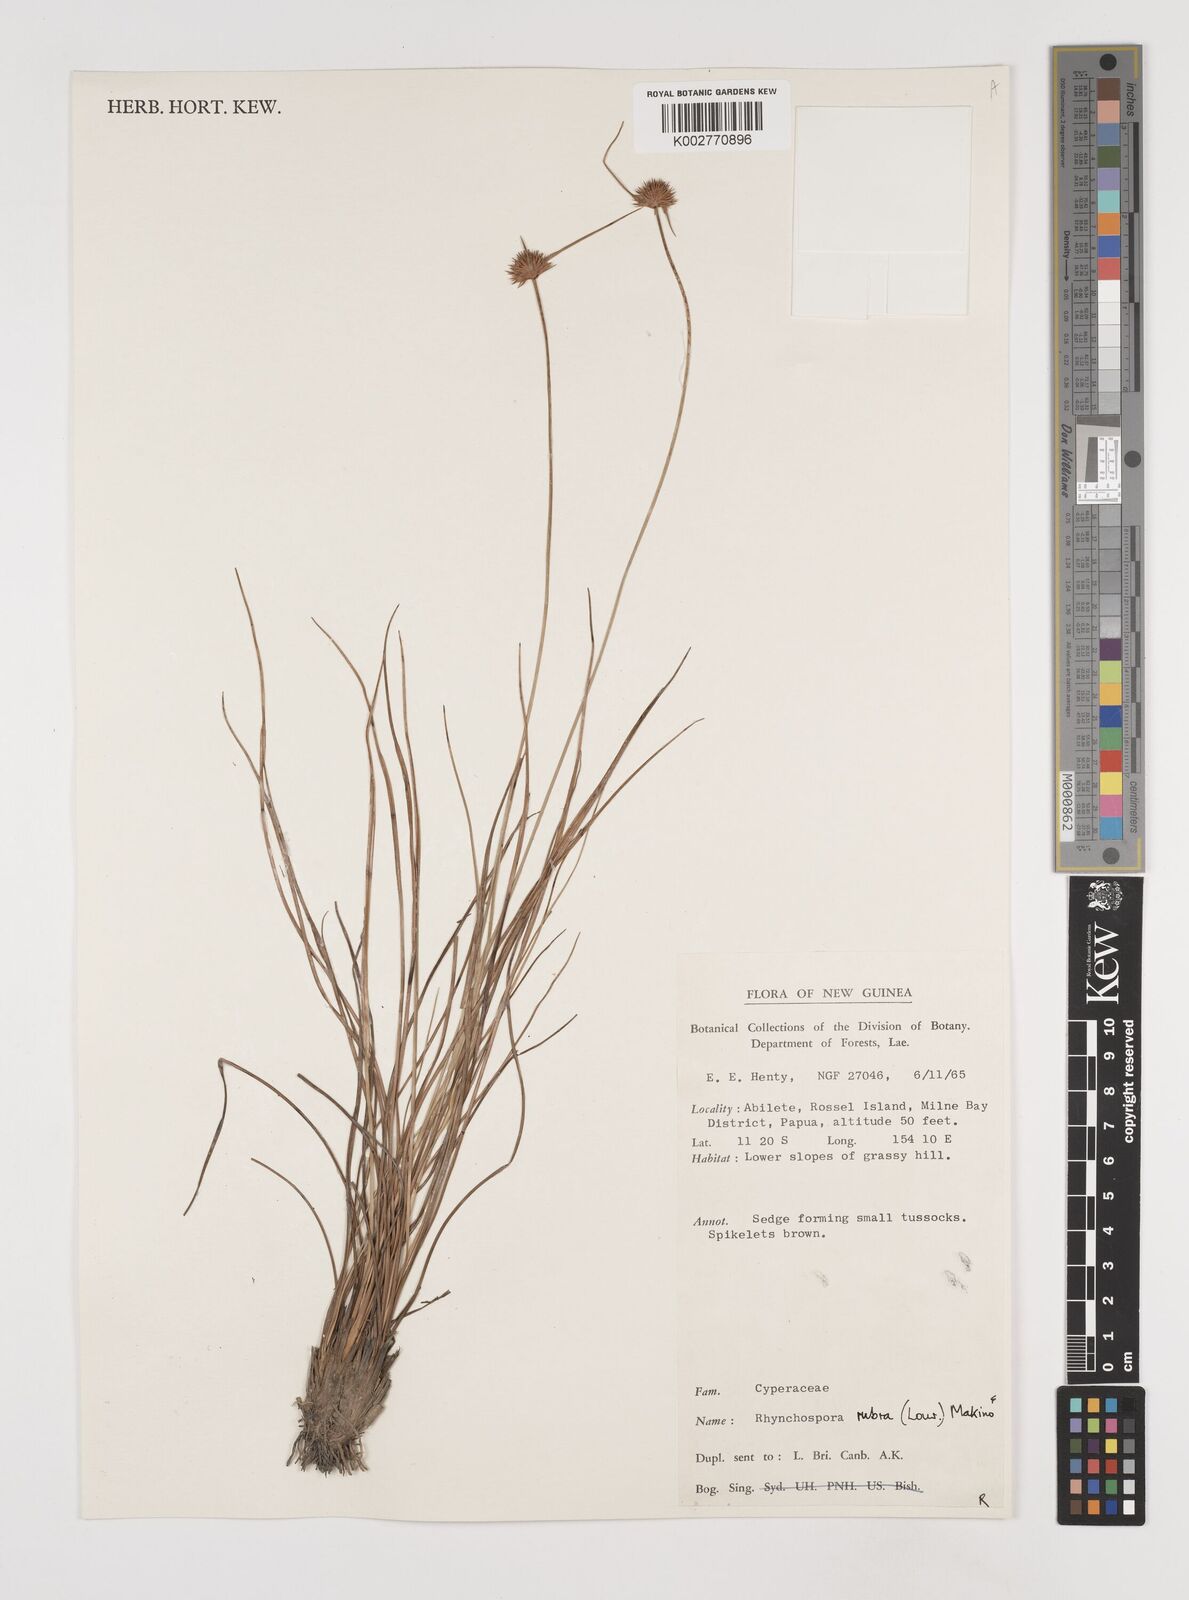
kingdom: Plantae
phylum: Tracheophyta
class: Liliopsida
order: Poales
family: Cyperaceae
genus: Rhynchospora
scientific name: Rhynchospora rubra
